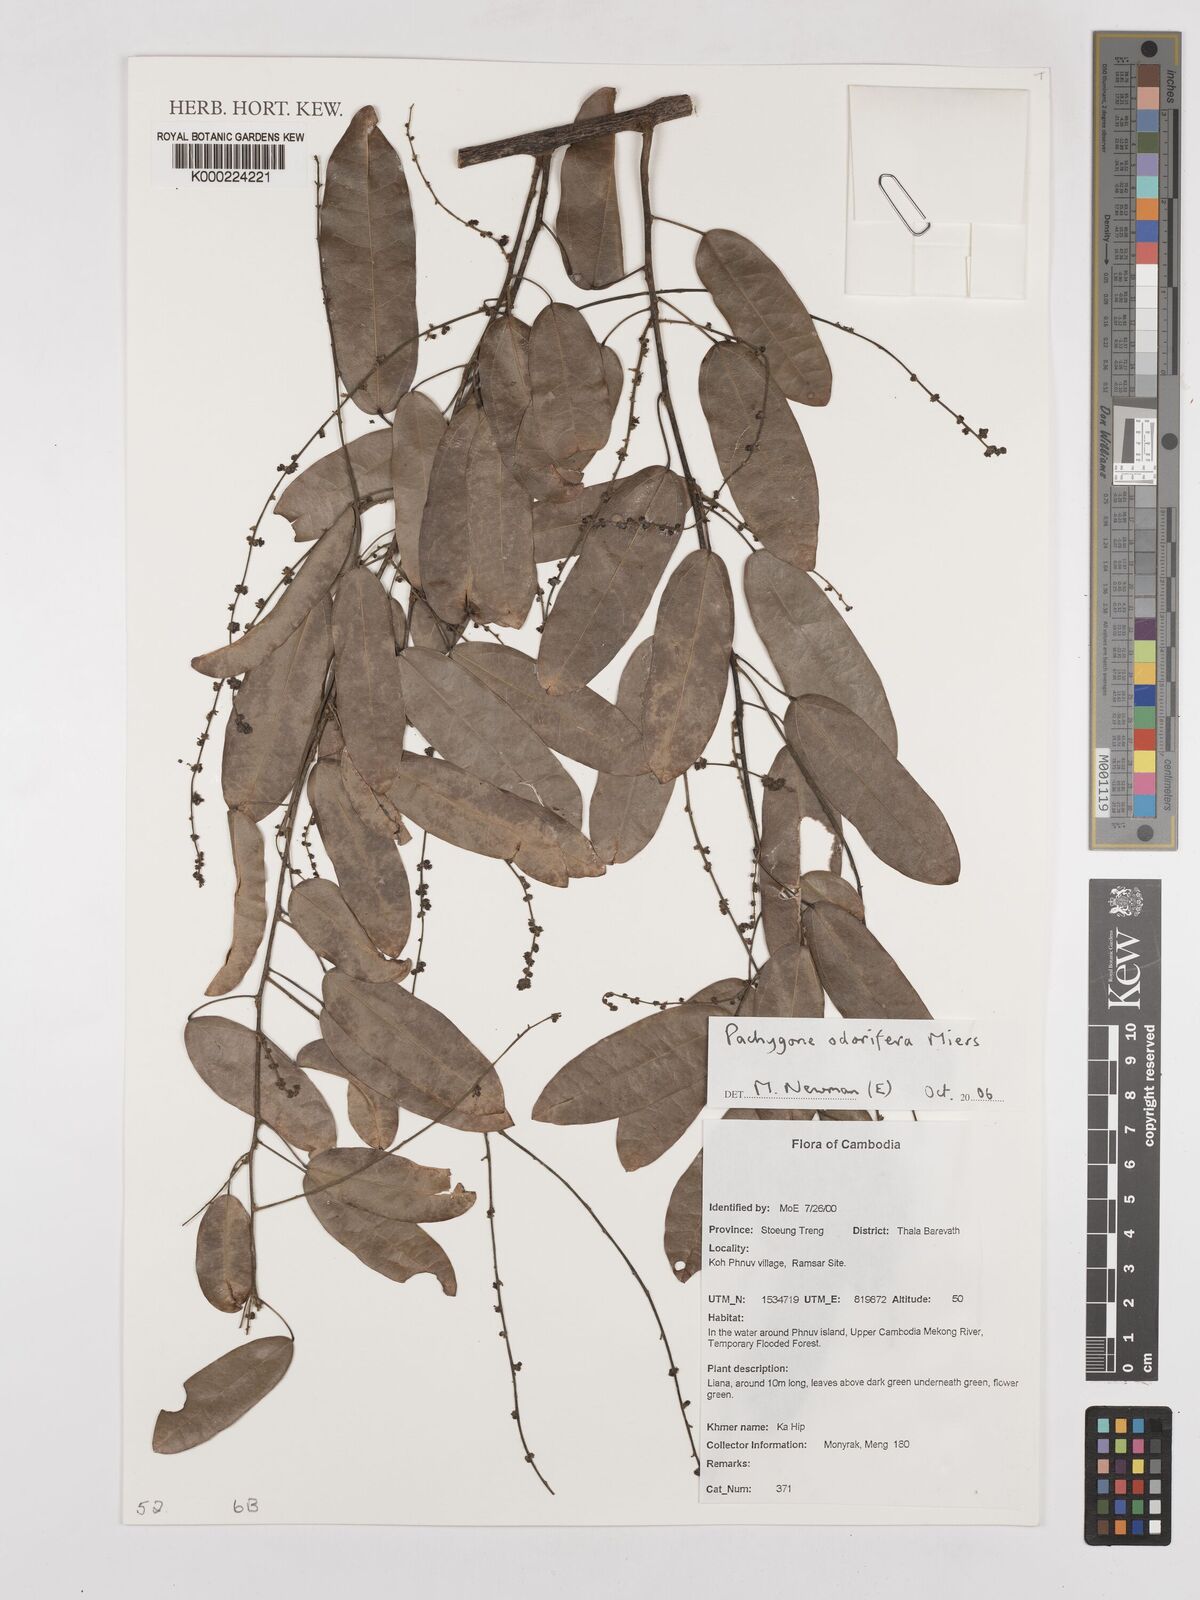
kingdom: Plantae
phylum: Tracheophyta
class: Magnoliopsida
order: Ranunculales
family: Menispermaceae
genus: Pachygone
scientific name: Pachygone odorifera
